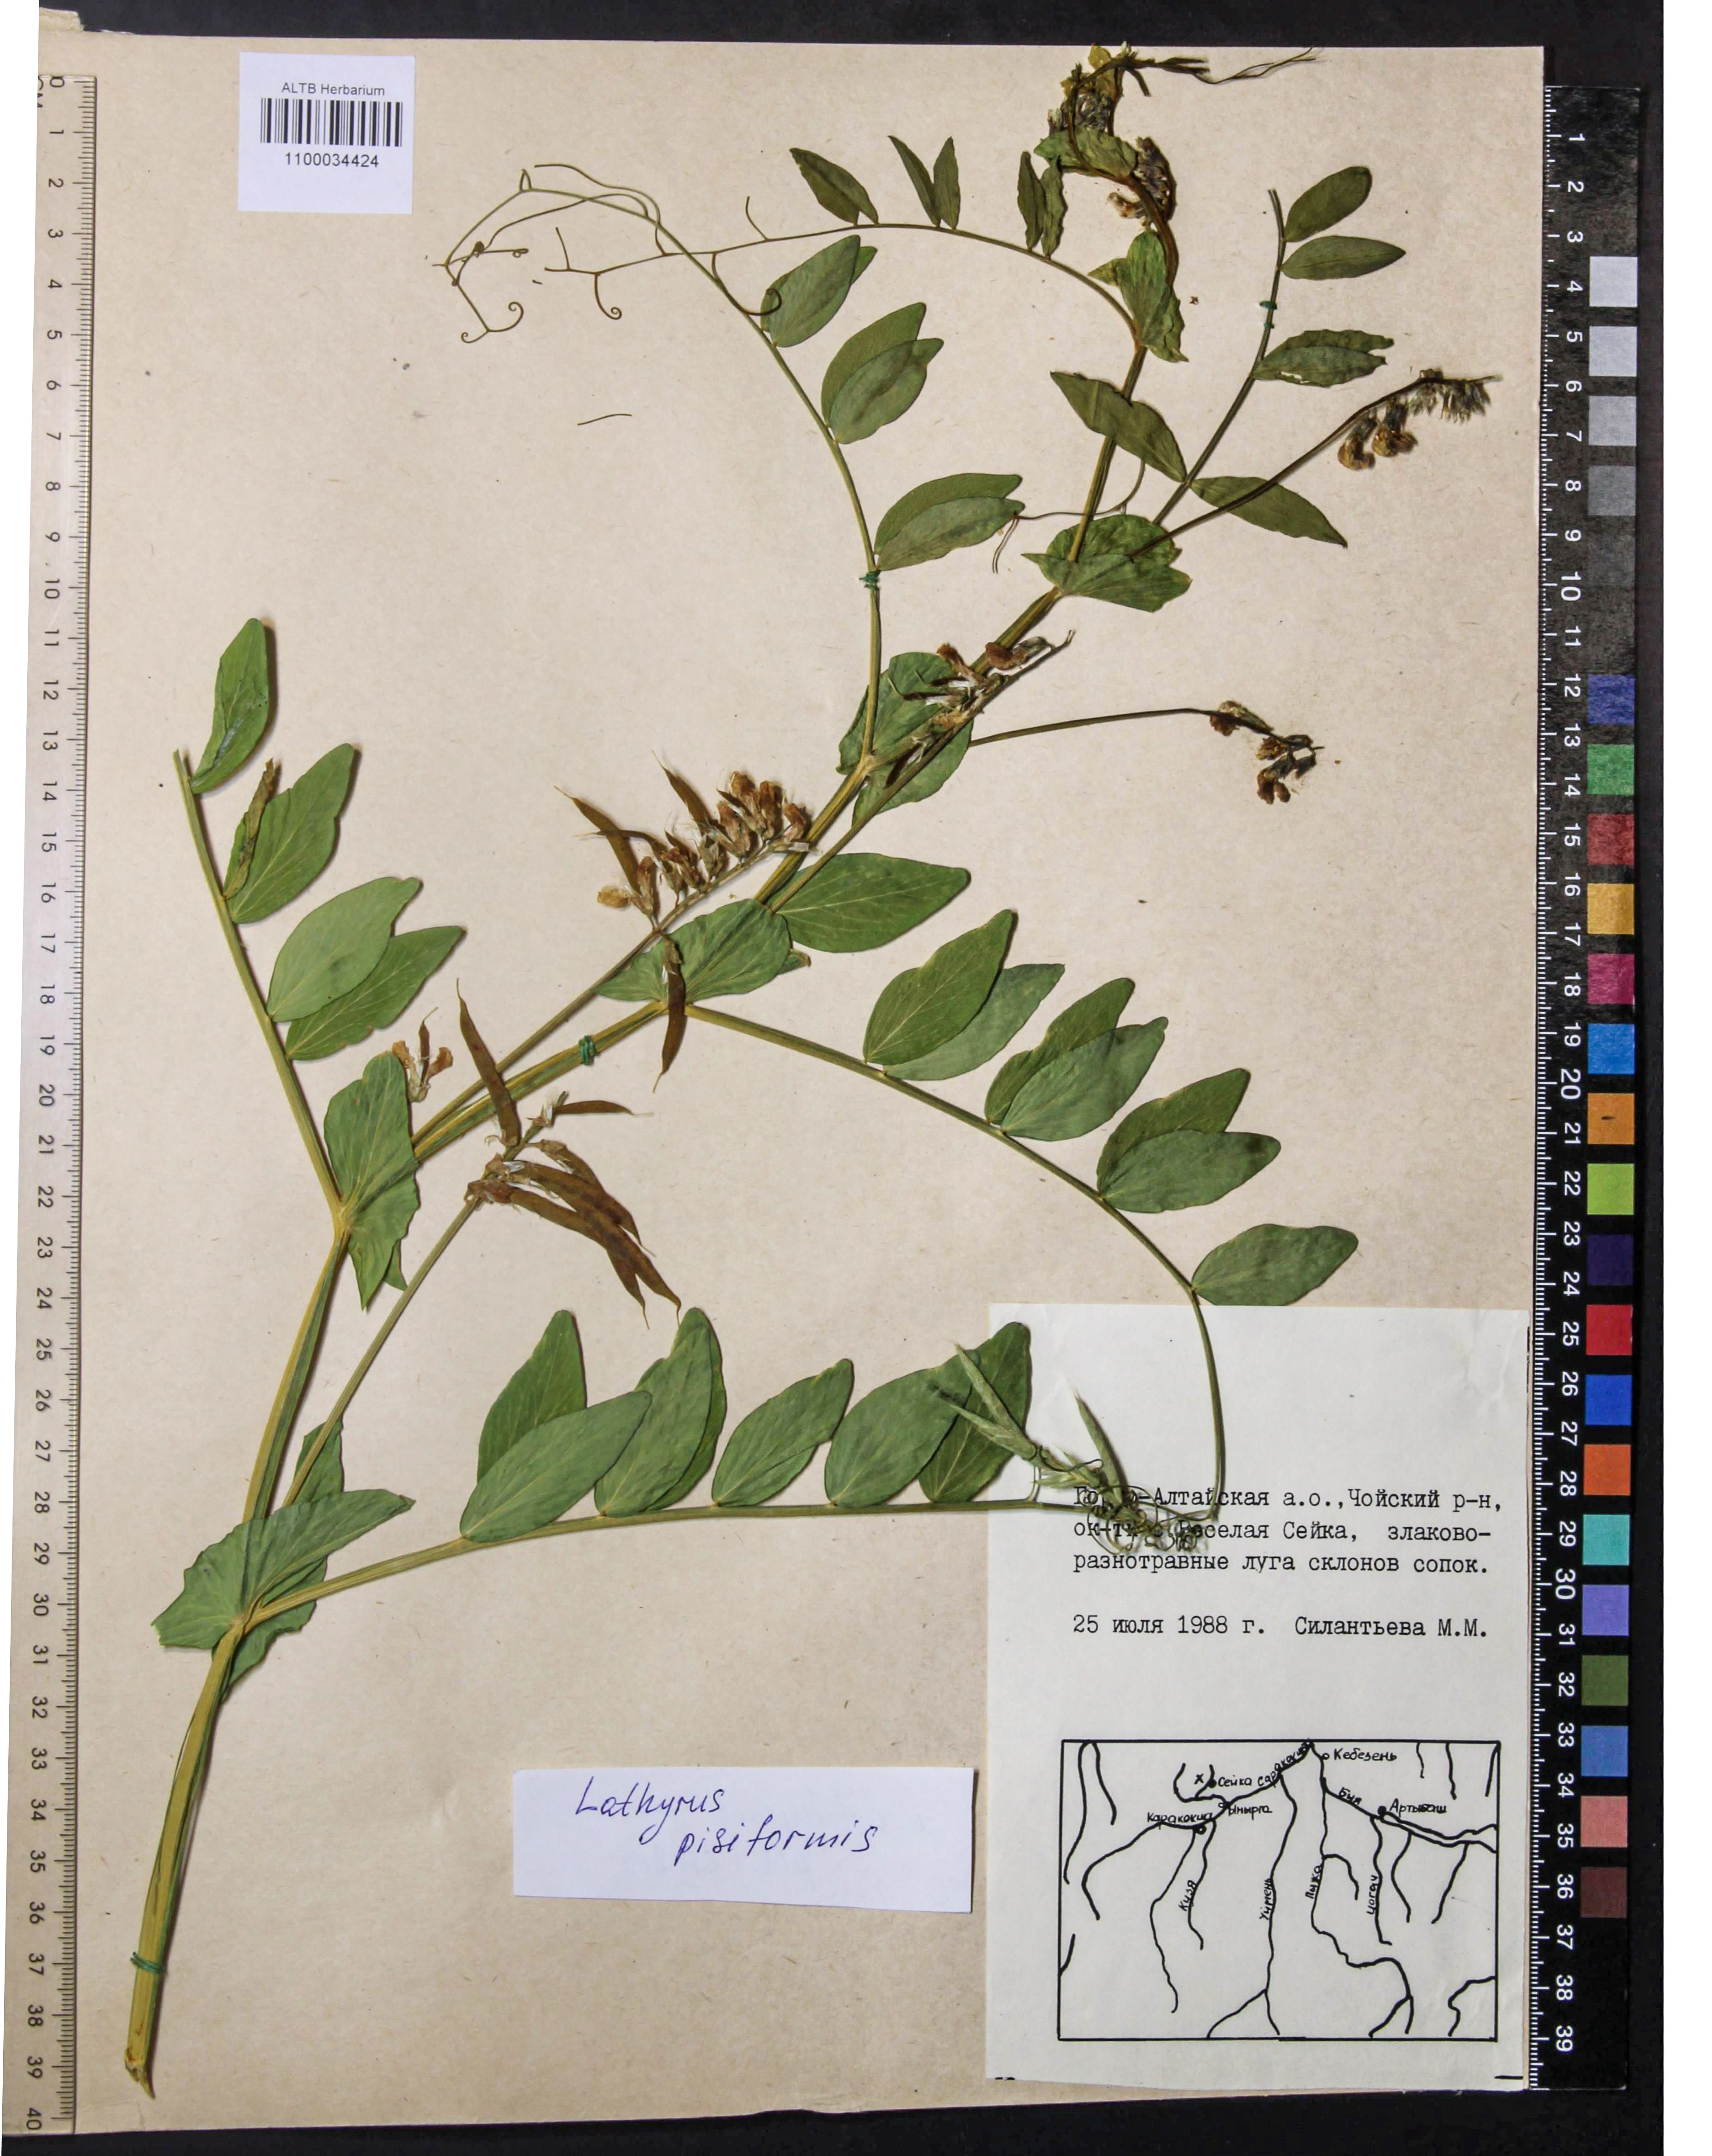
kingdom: Plantae
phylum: Tracheophyta
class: Magnoliopsida
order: Fabales
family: Fabaceae
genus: Lathyrus
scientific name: Lathyrus pisiformis
